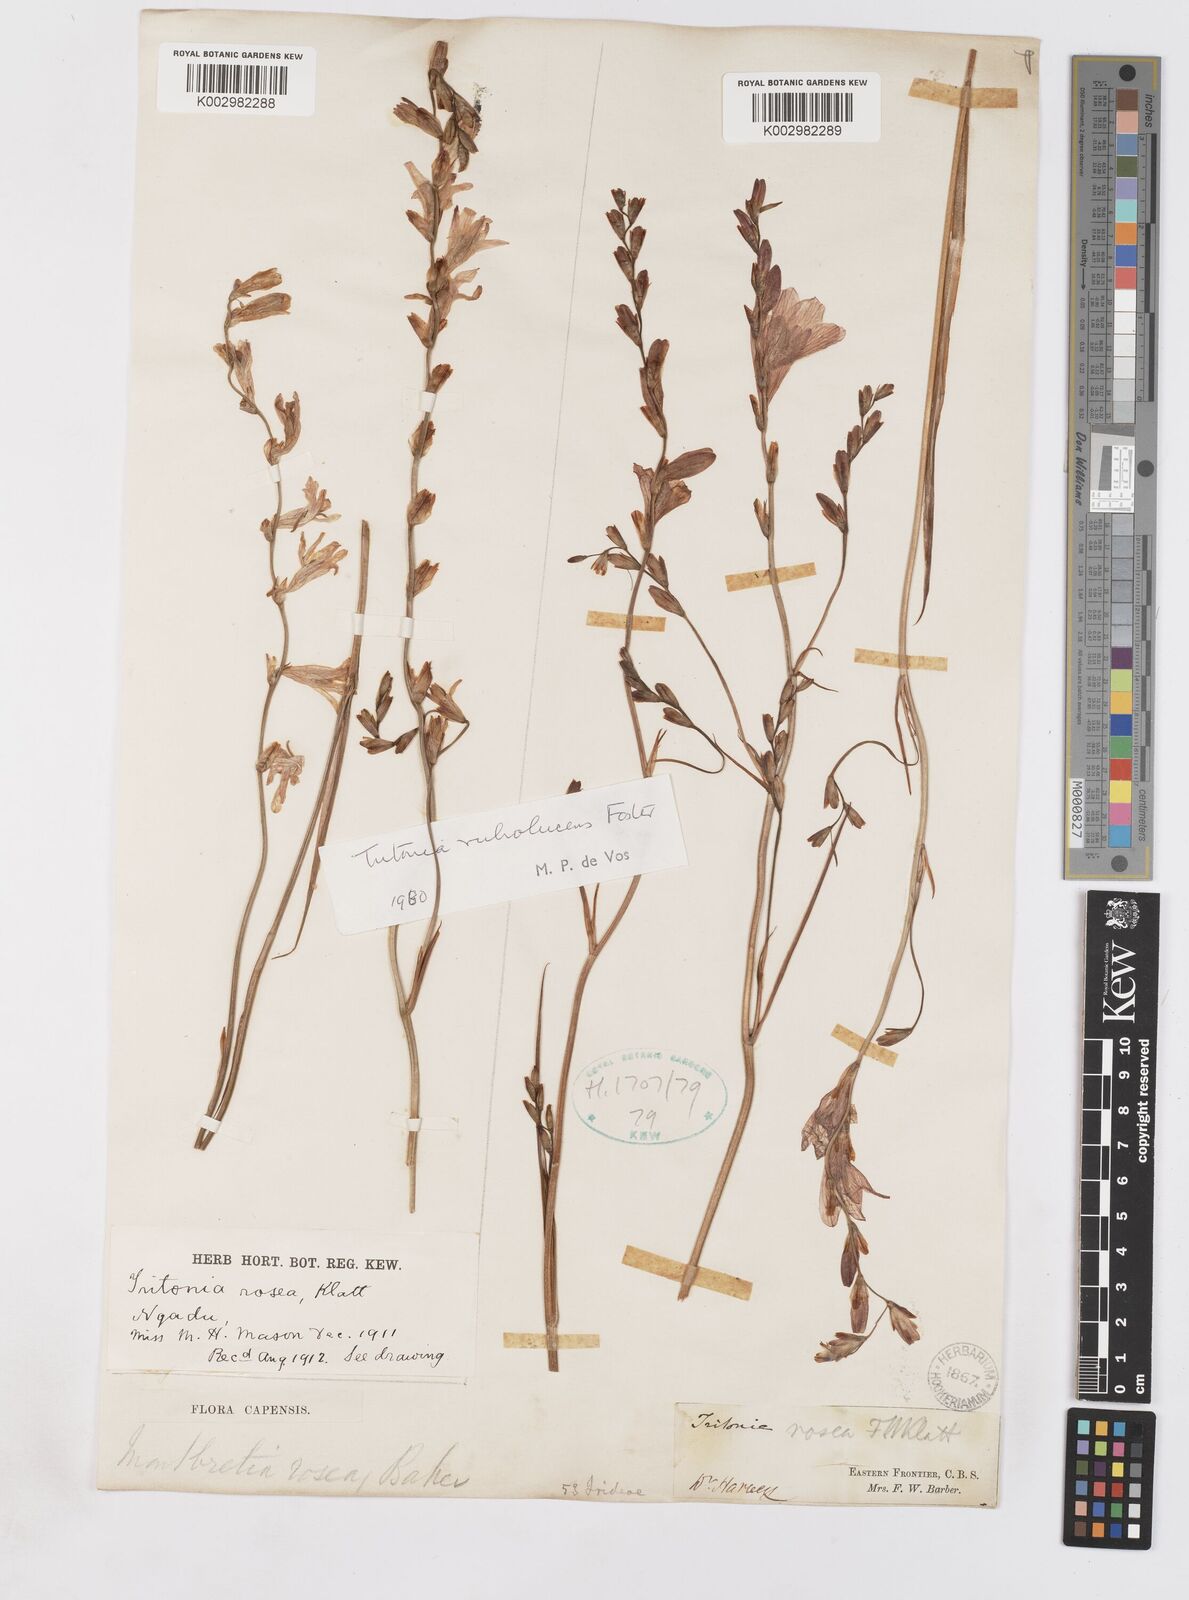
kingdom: Plantae
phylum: Tracheophyta
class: Liliopsida
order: Asparagales
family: Iridaceae
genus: Tritonia
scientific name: Tritonia disticha
